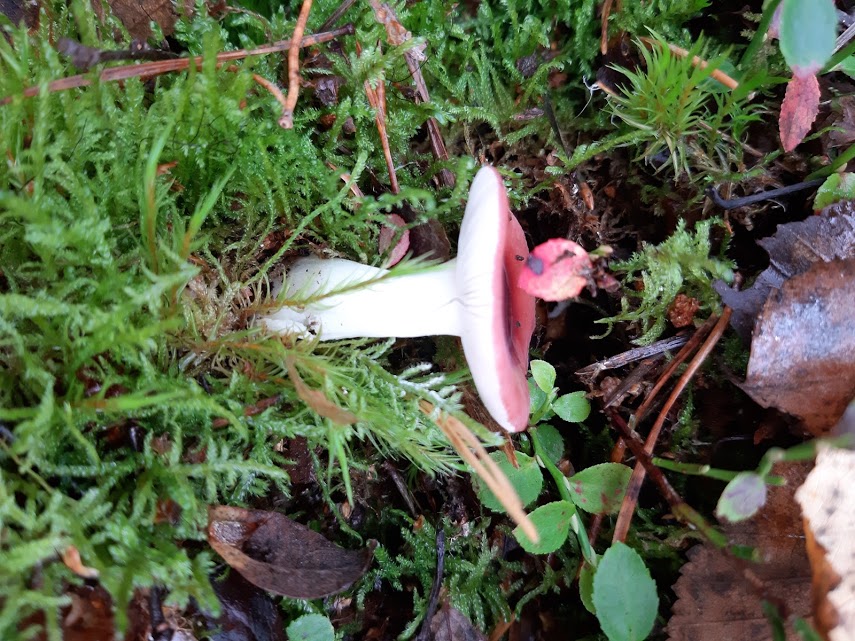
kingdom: Fungi
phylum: Basidiomycota
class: Agaricomycetes
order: Russulales
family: Russulaceae
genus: Russula
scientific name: Russula
